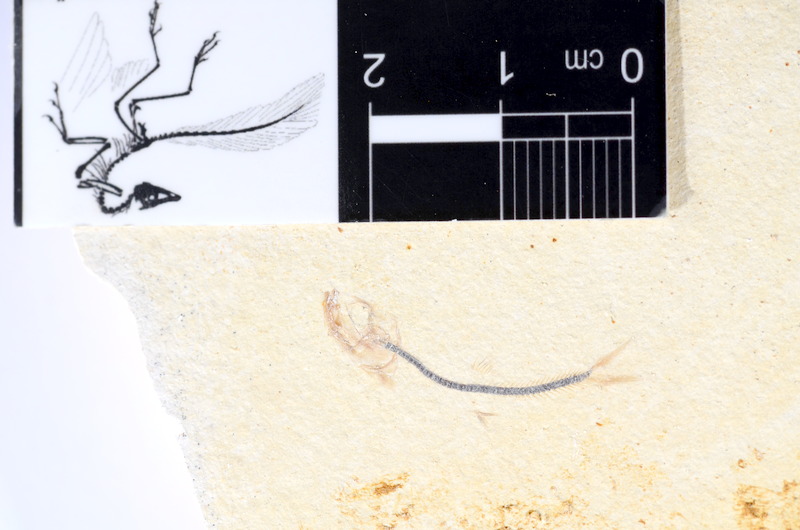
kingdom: Animalia
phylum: Chordata
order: Salmoniformes
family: Orthogonikleithridae
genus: Orthogonikleithrus
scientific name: Orthogonikleithrus hoelli
